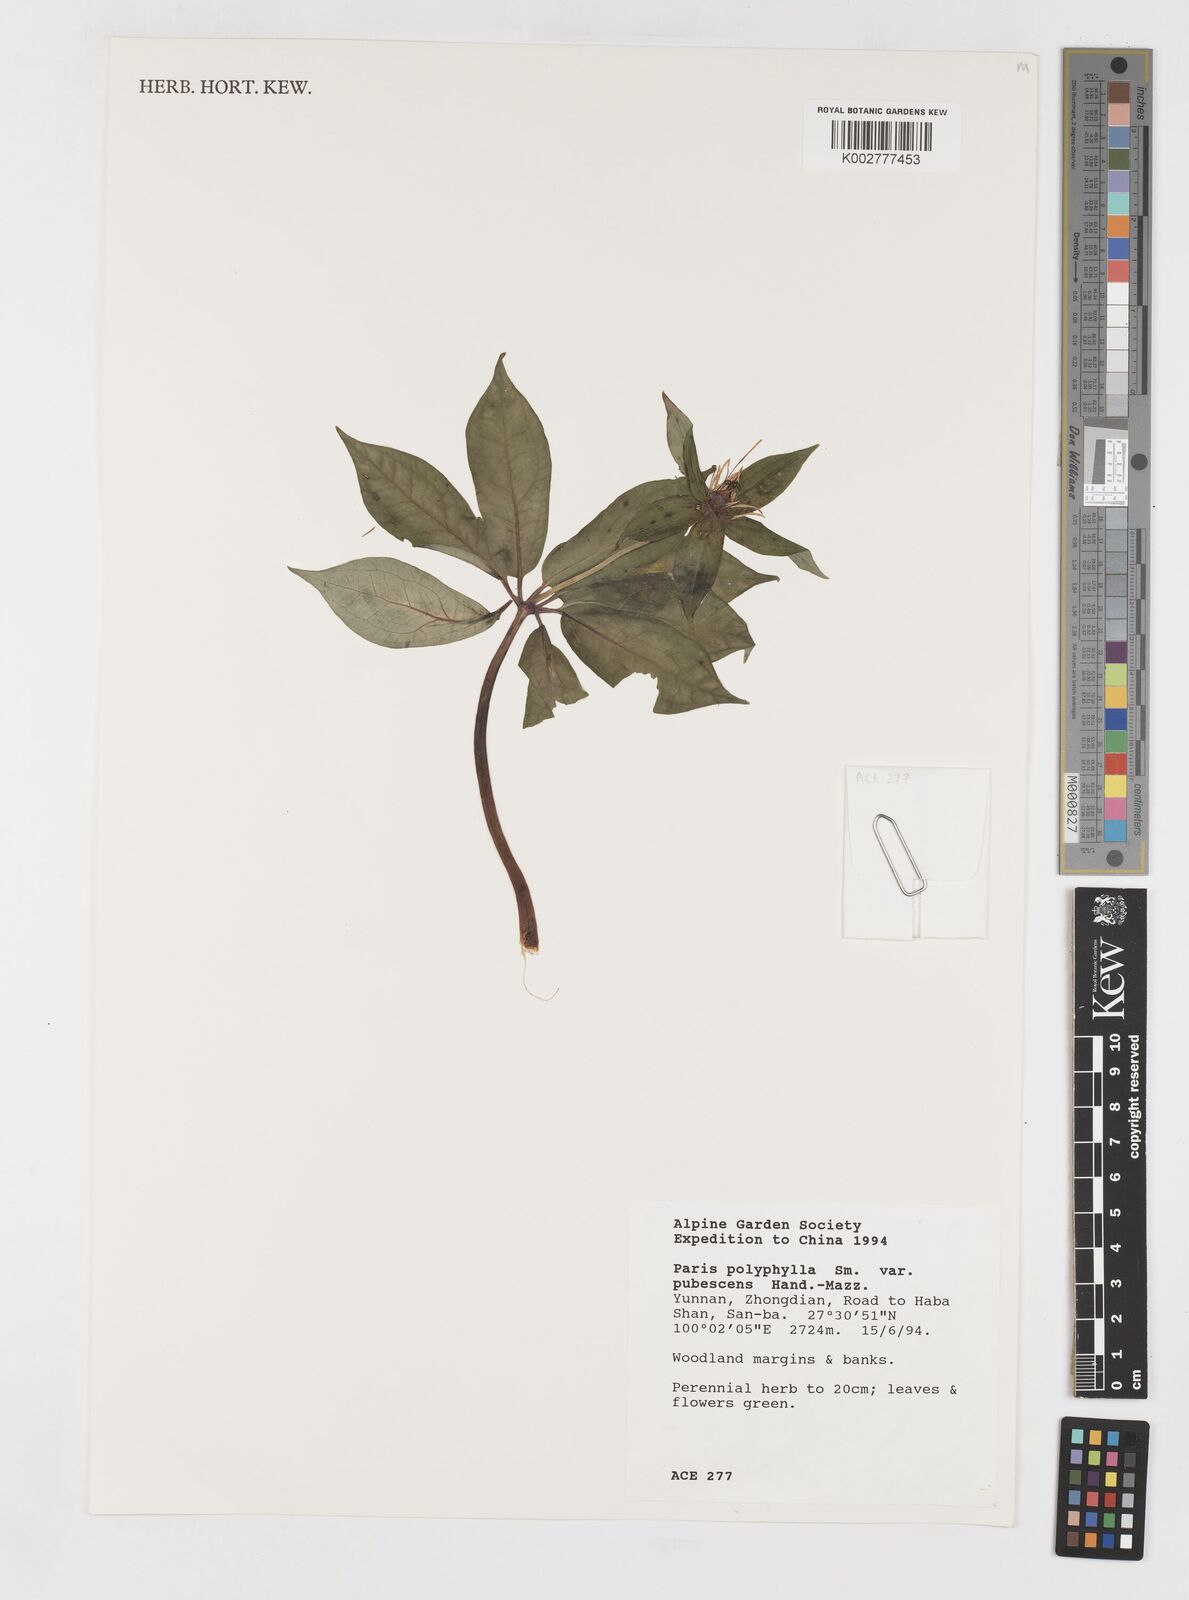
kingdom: Plantae
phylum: Tracheophyta
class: Liliopsida
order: Liliales
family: Melanthiaceae
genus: Paris
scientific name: Paris polyphylla
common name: Love apple
